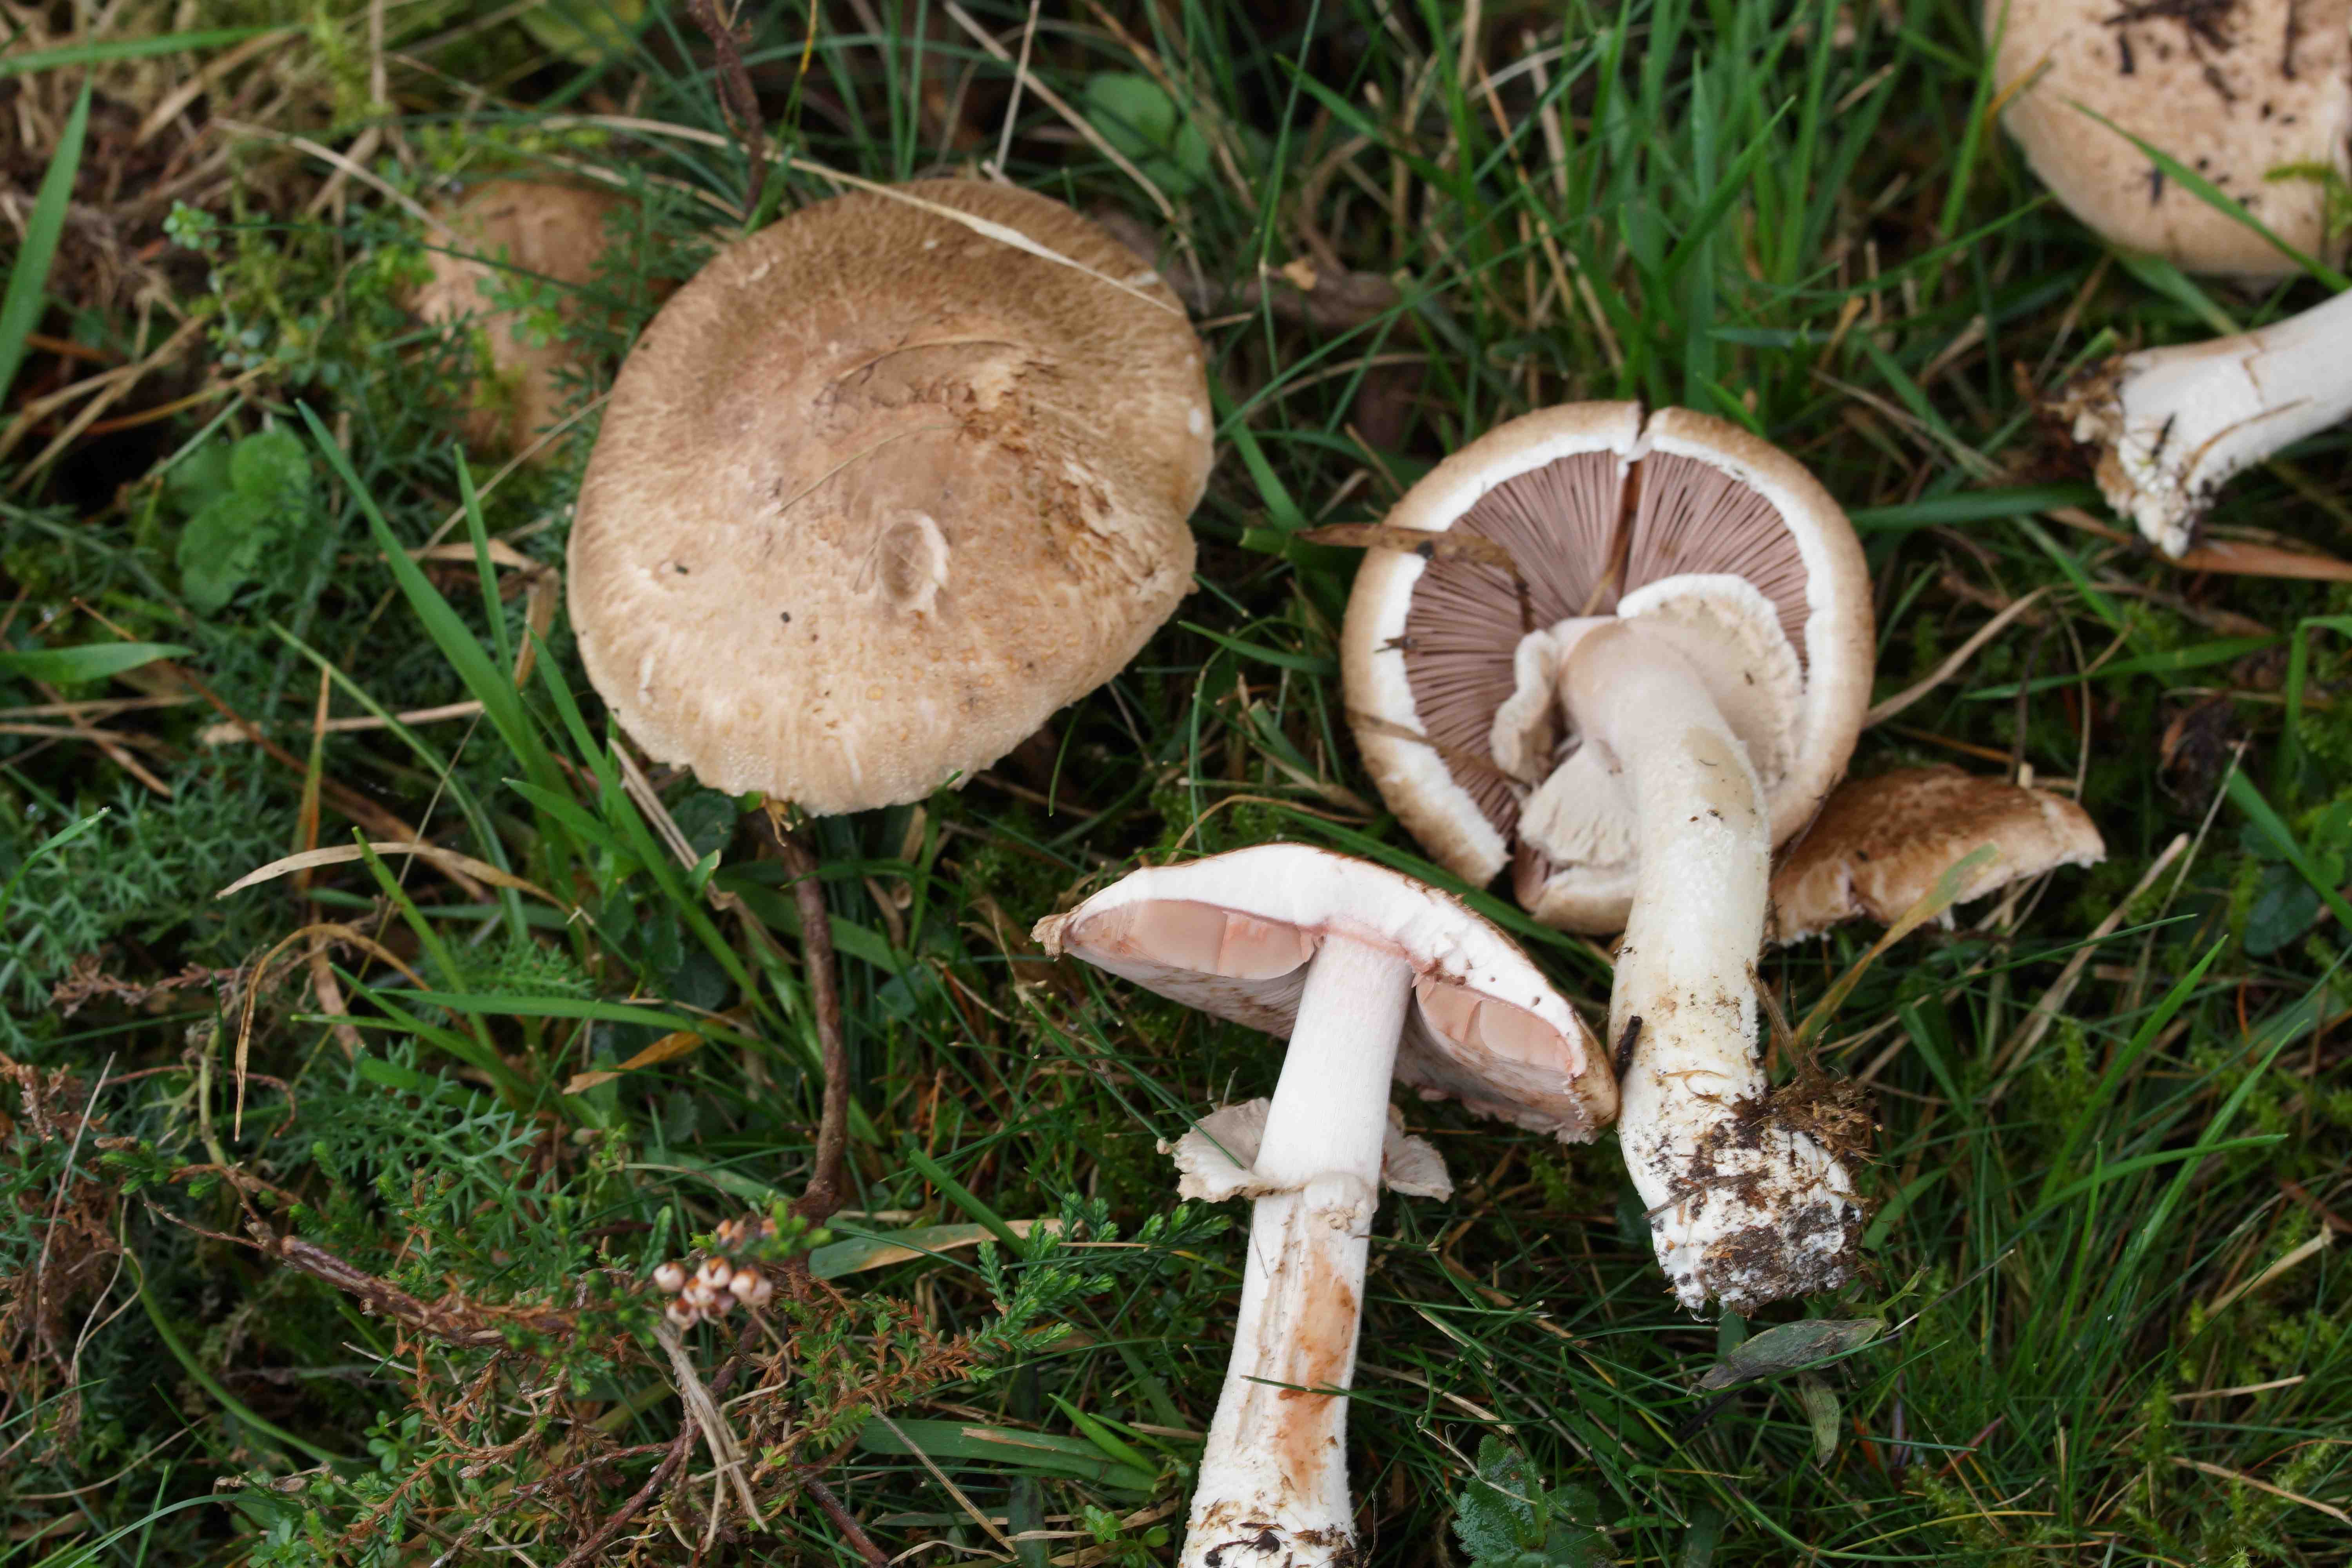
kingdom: Fungi
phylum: Basidiomycota
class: Agaricomycetes
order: Agaricales
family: Agaricaceae
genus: Agaricus
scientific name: Agaricus sylvaticus
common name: lille blod-champignon
